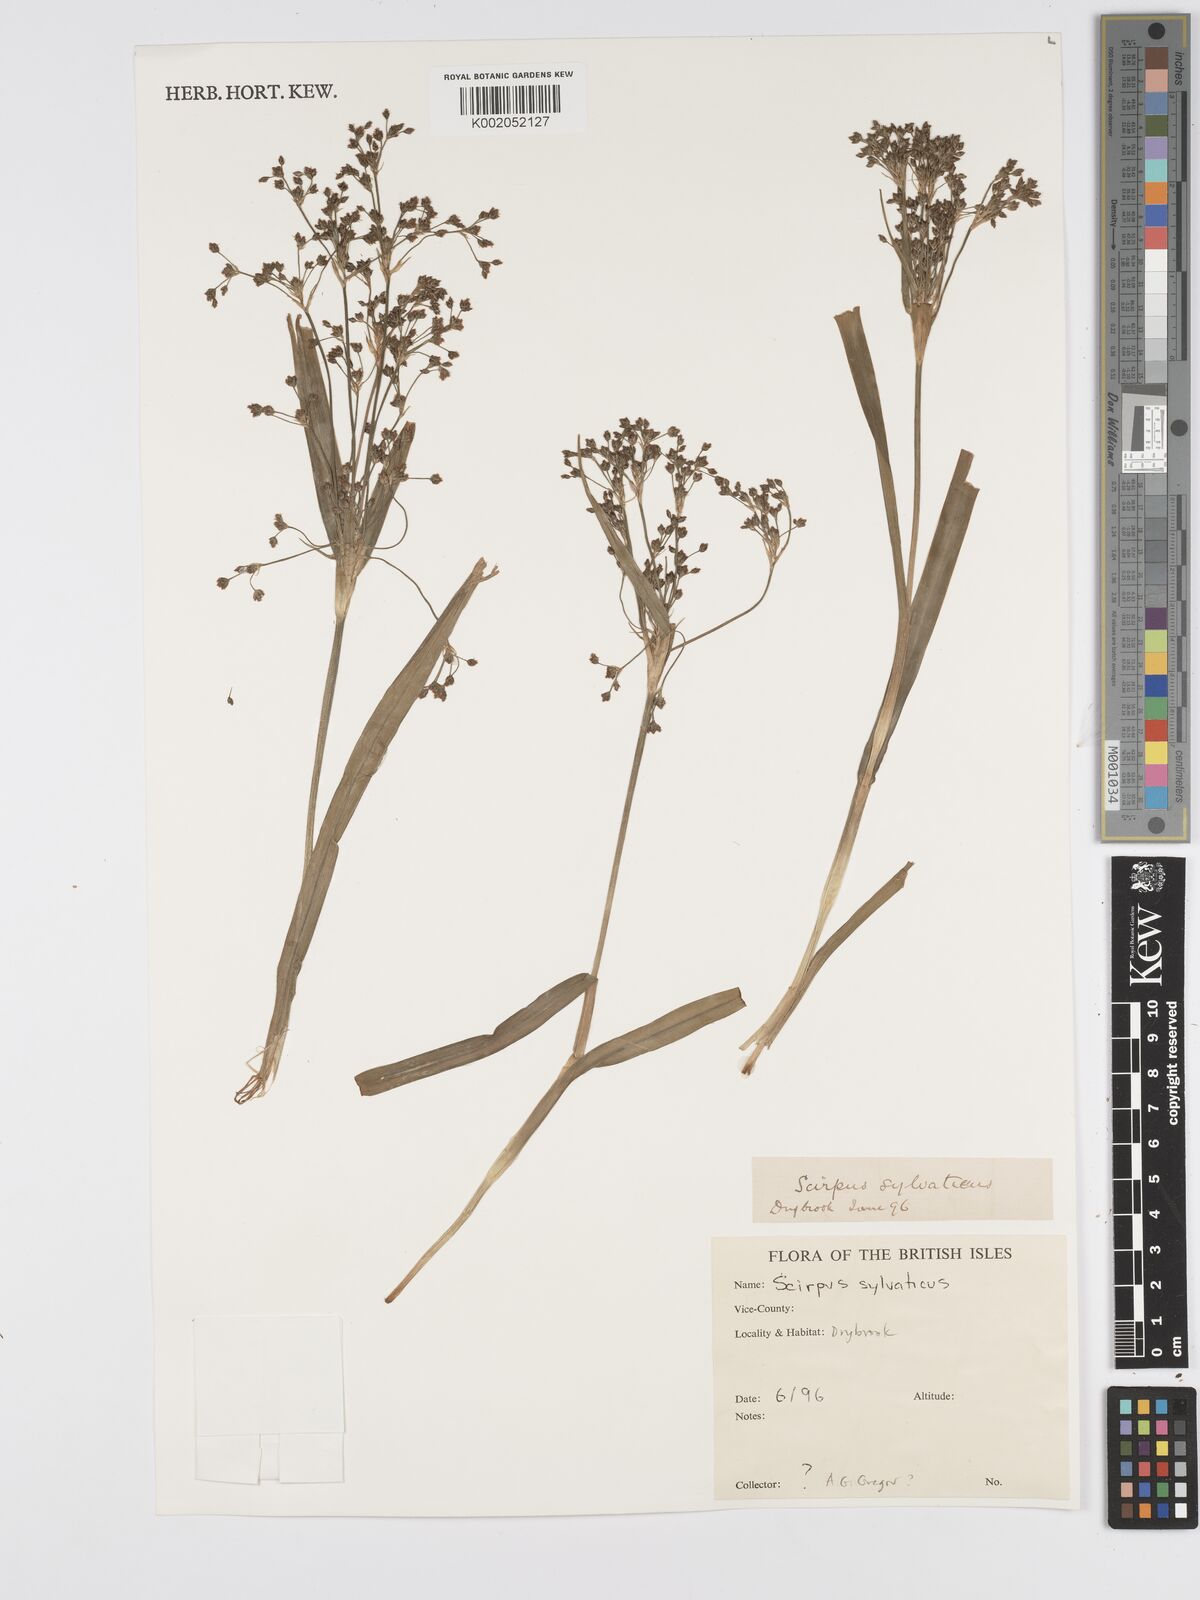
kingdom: Plantae
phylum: Tracheophyta
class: Liliopsida
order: Poales
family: Cyperaceae
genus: Scirpus
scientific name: Scirpus sylvaticus
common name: Wood club-rush
